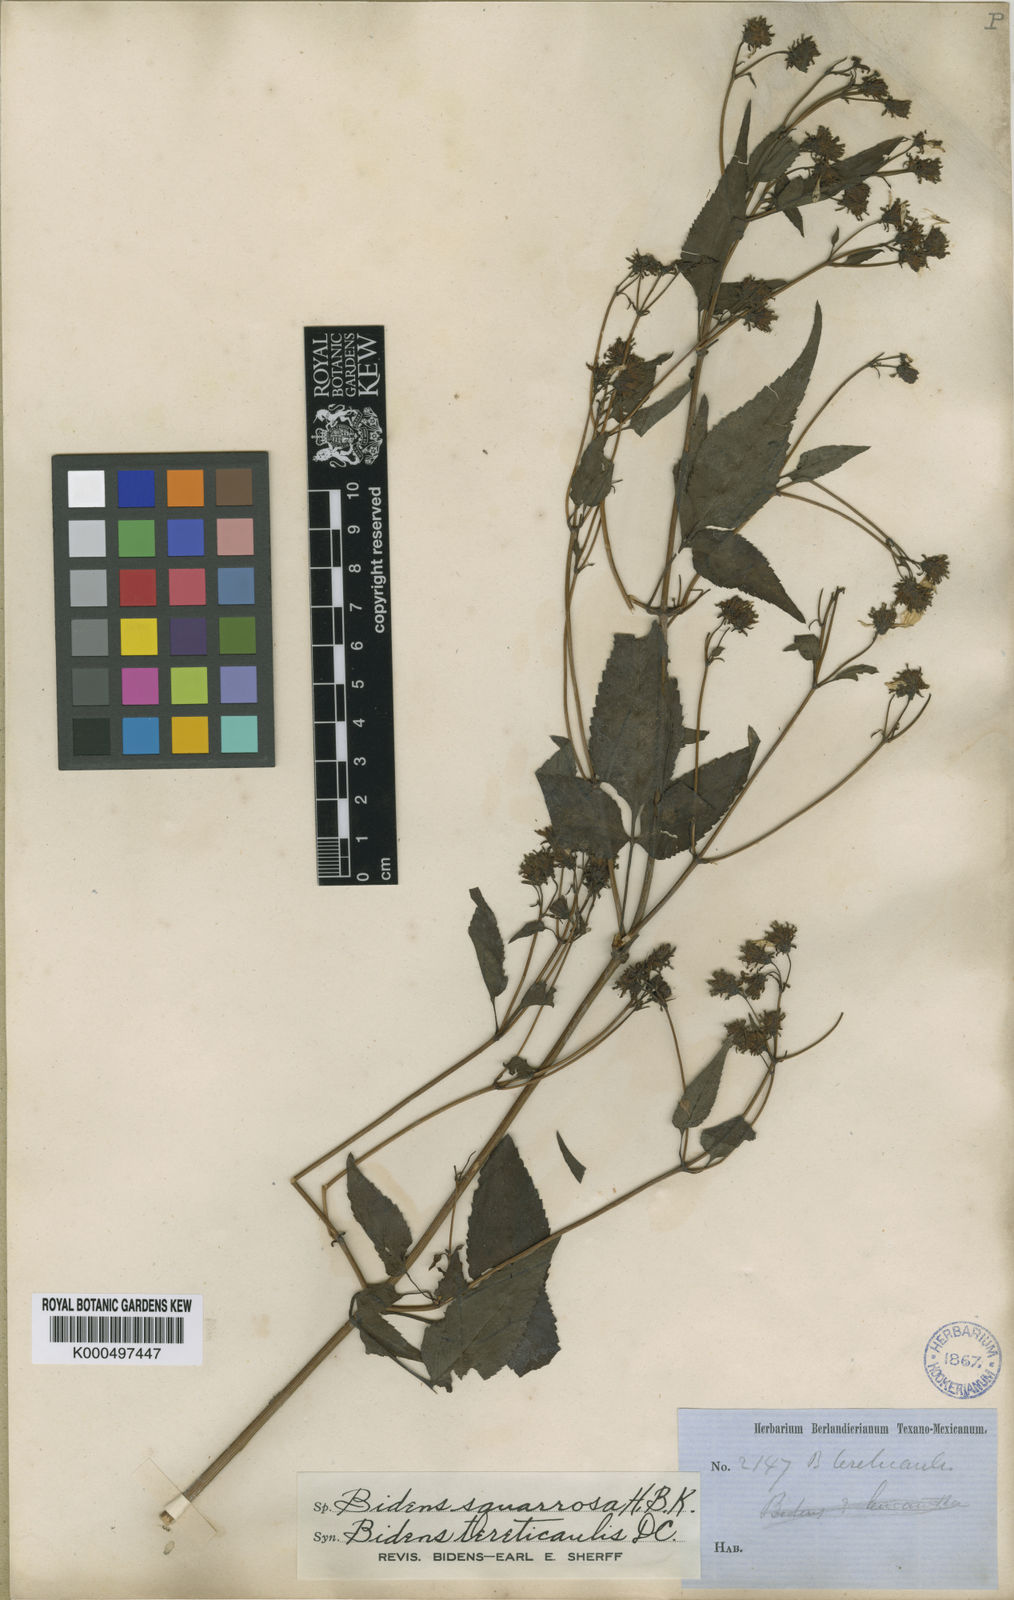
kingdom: Plantae
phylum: Tracheophyta
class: Magnoliopsida
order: Asterales
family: Asteraceae
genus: Bidens
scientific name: Bidens reptans
